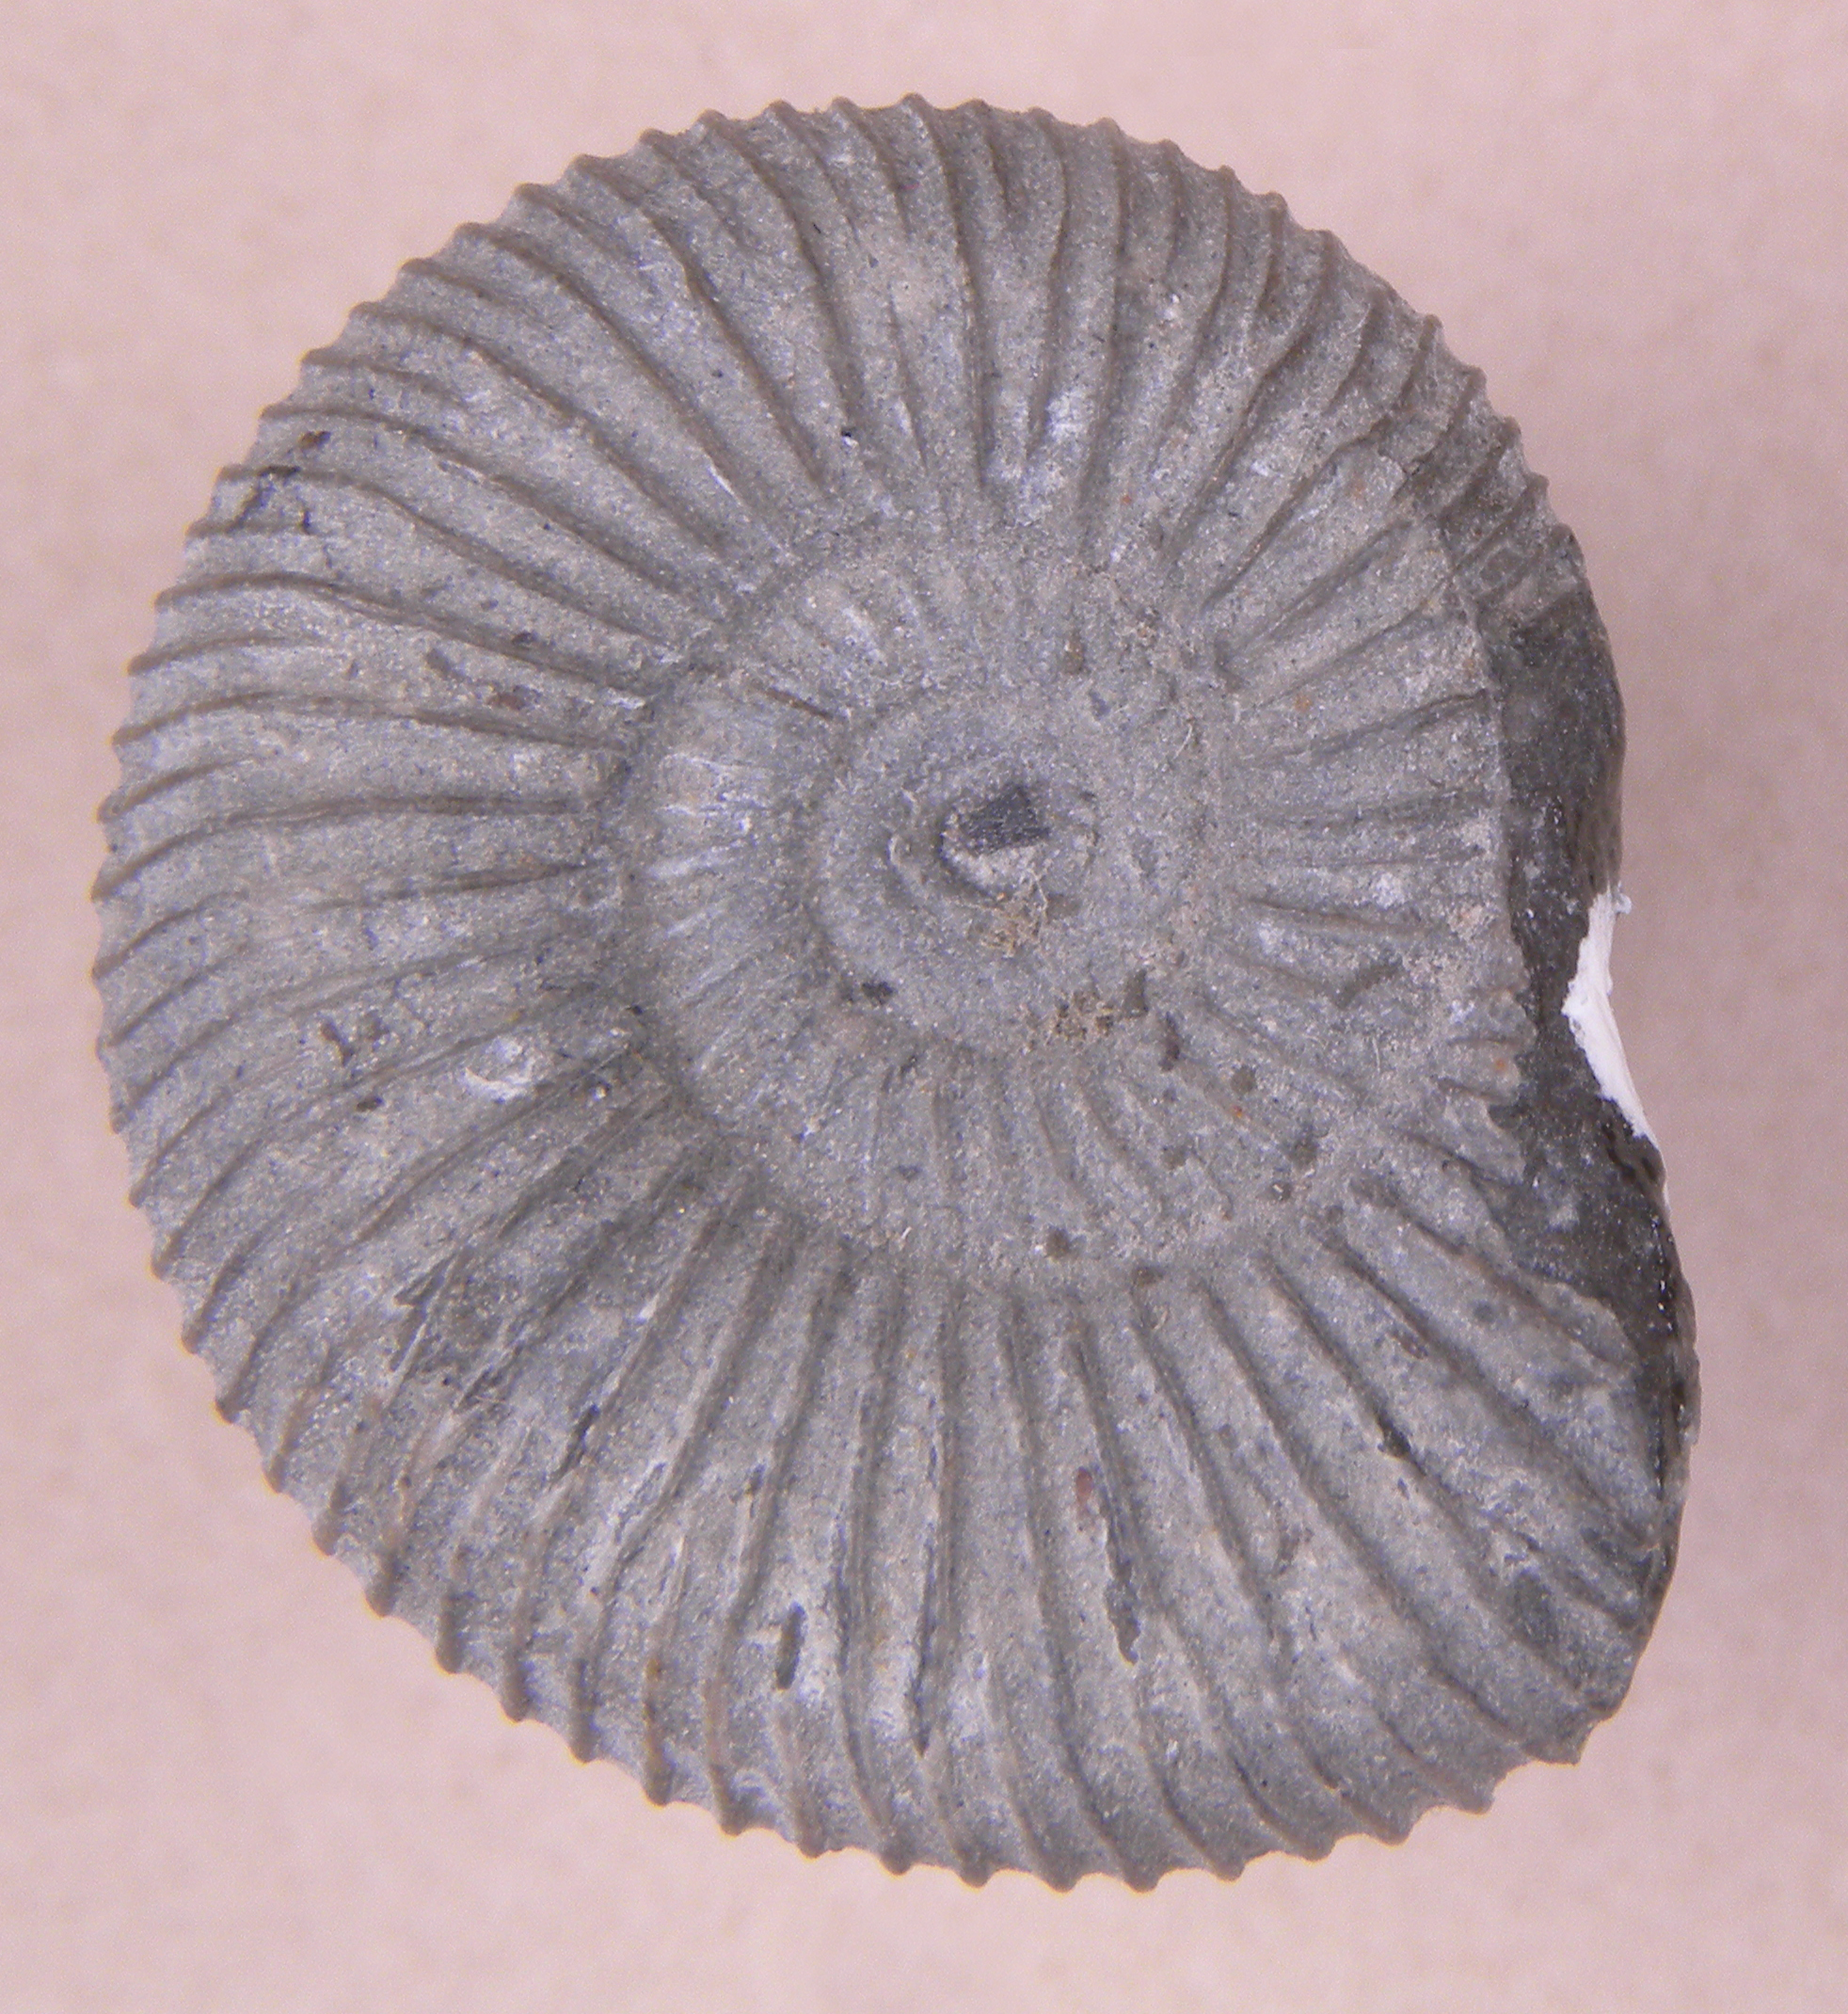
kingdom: Animalia
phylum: Mollusca
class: Cephalopoda
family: Dactylioceratidae
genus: Dactylioceras
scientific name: Dactylioceras
